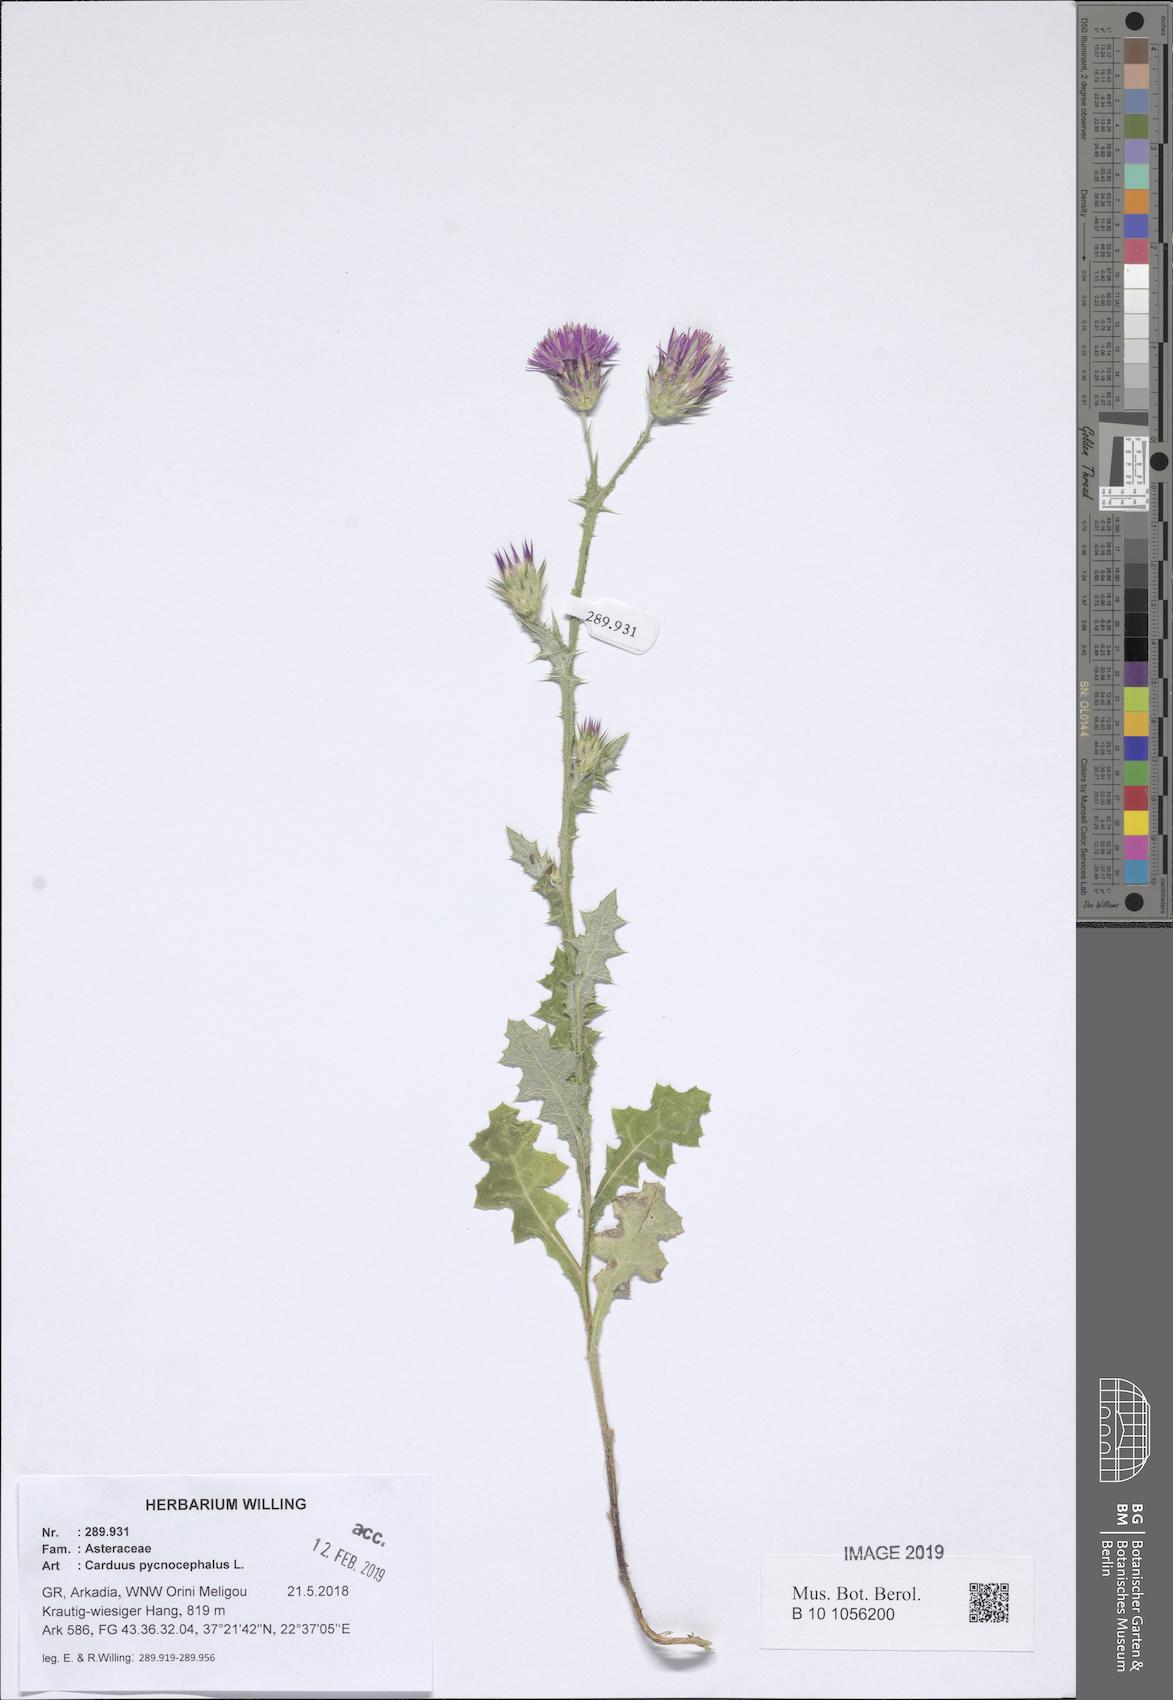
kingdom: Plantae
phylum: Tracheophyta
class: Magnoliopsida
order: Asterales
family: Asteraceae
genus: Carduus
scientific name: Carduus pycnocephalus
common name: Plymouth thistle
